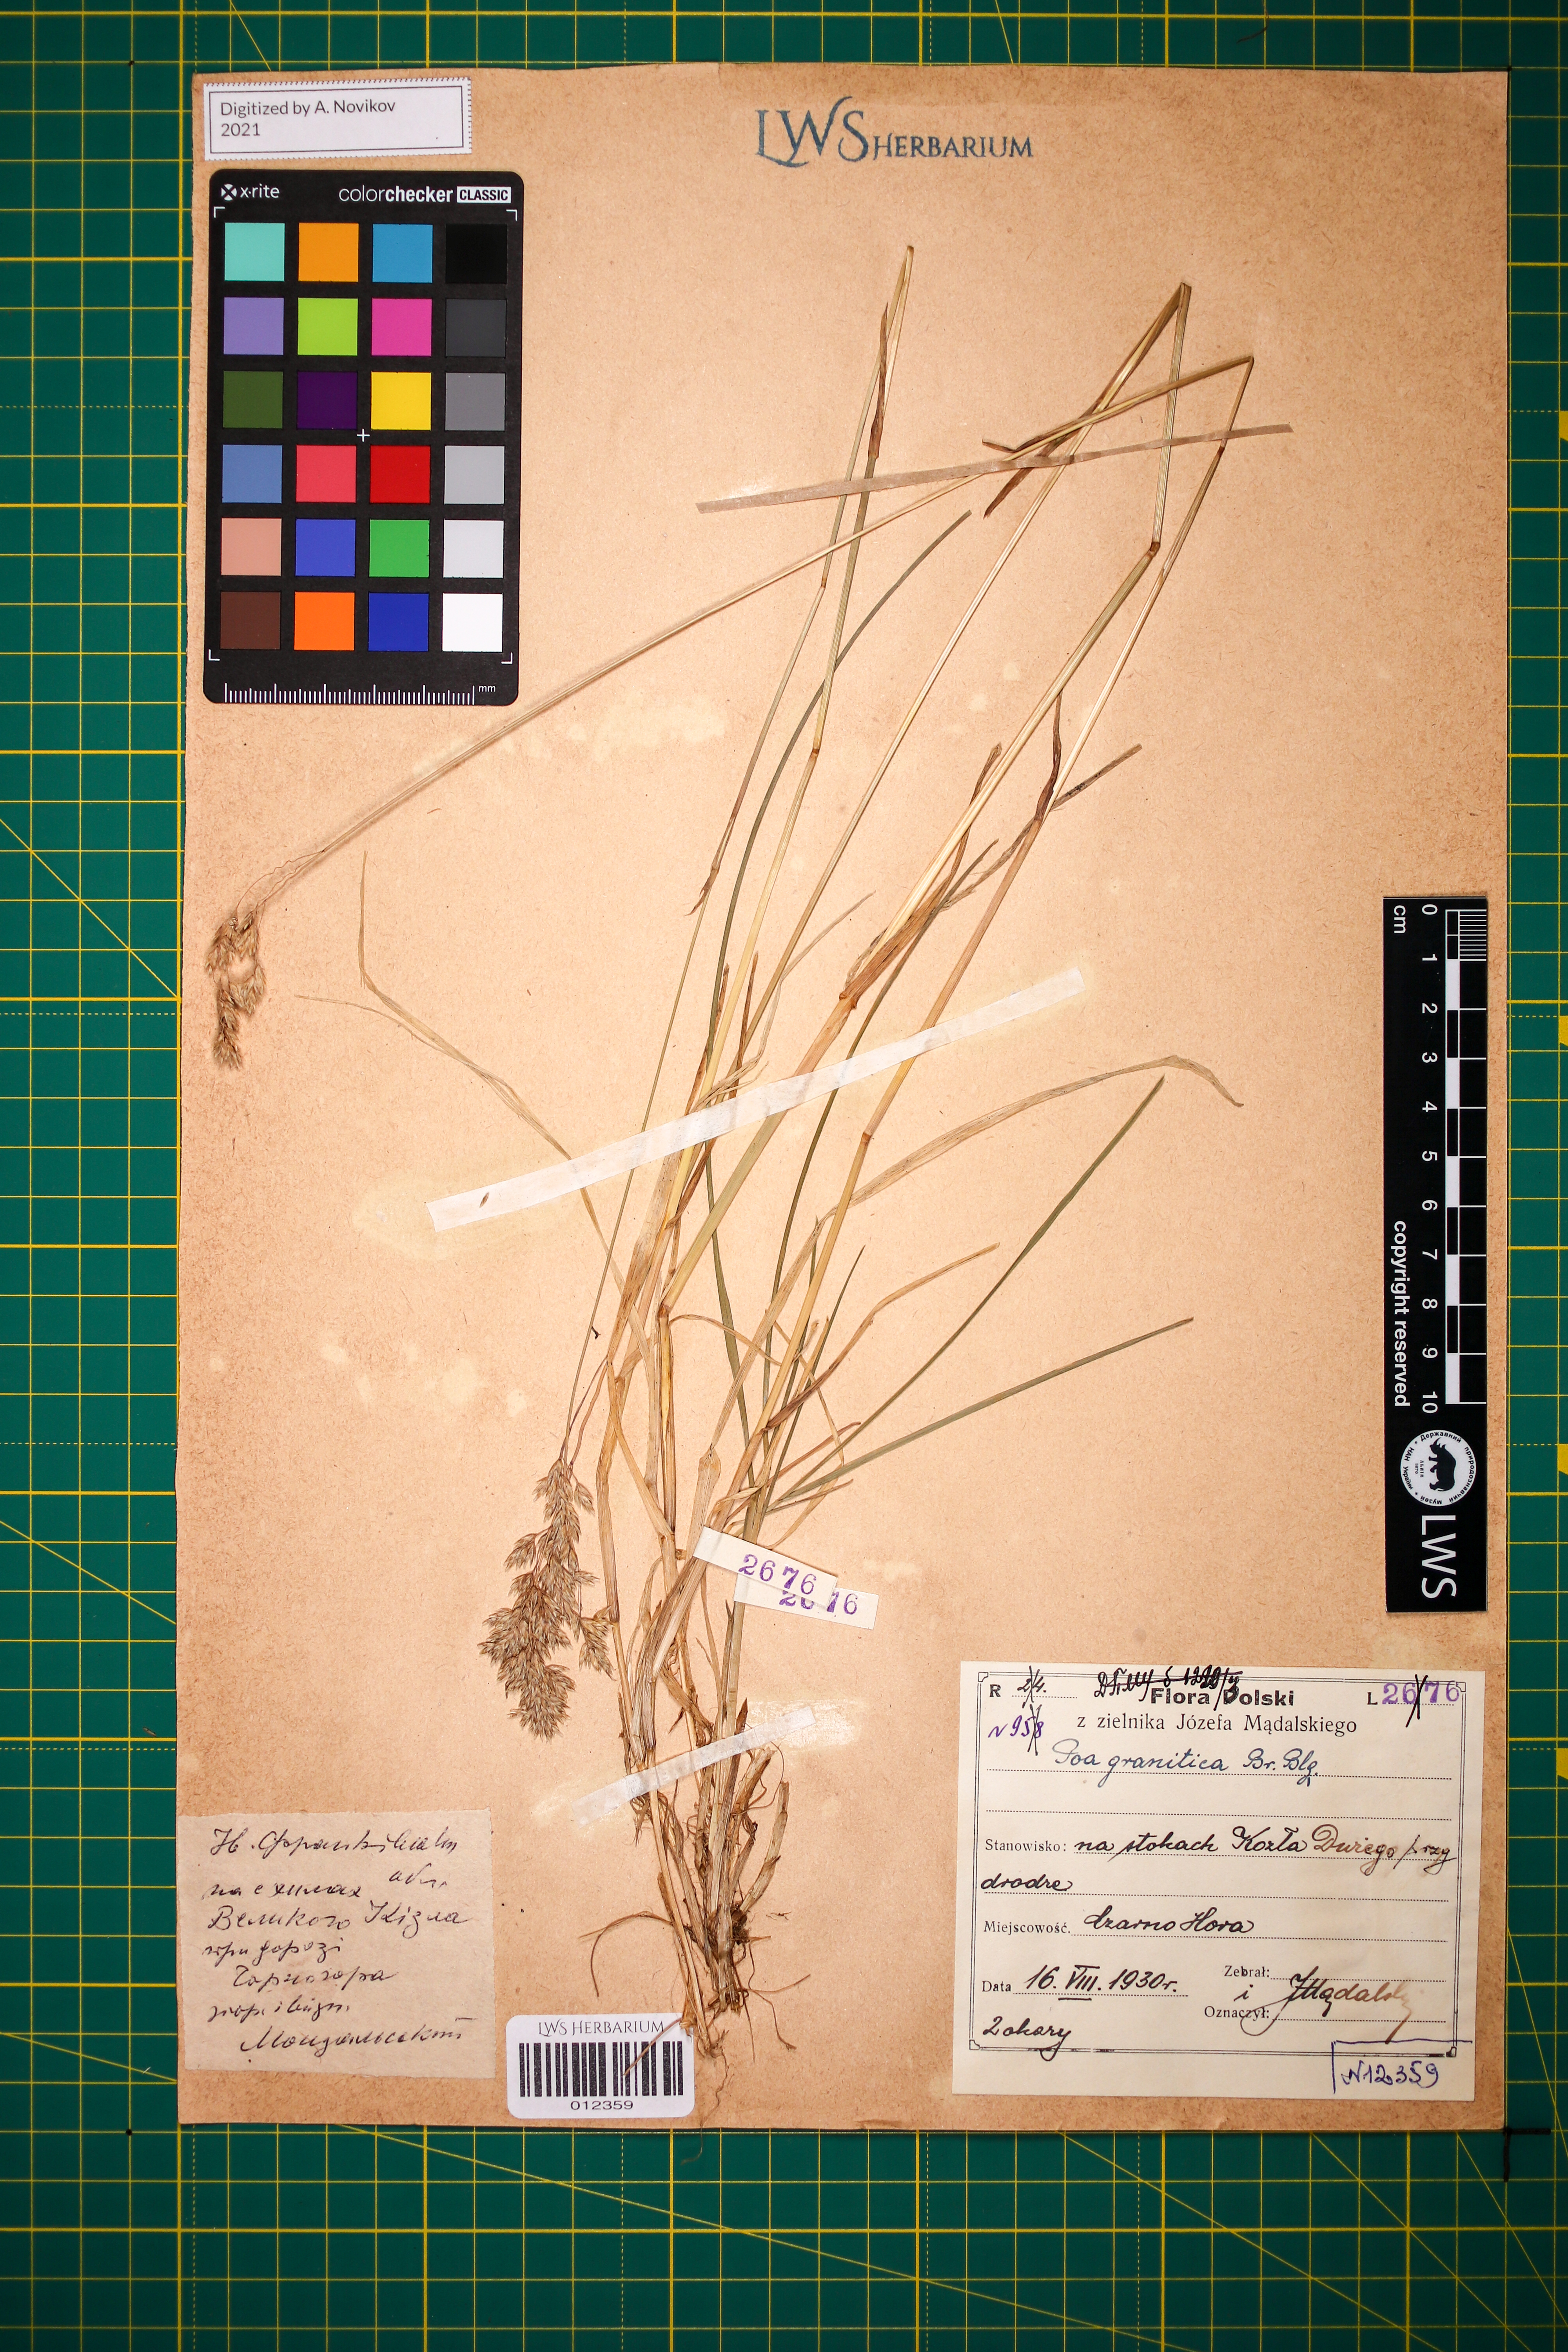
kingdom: Plantae
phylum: Tracheophyta
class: Liliopsida
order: Poales
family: Poaceae
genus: Poa
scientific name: Poa granitica
